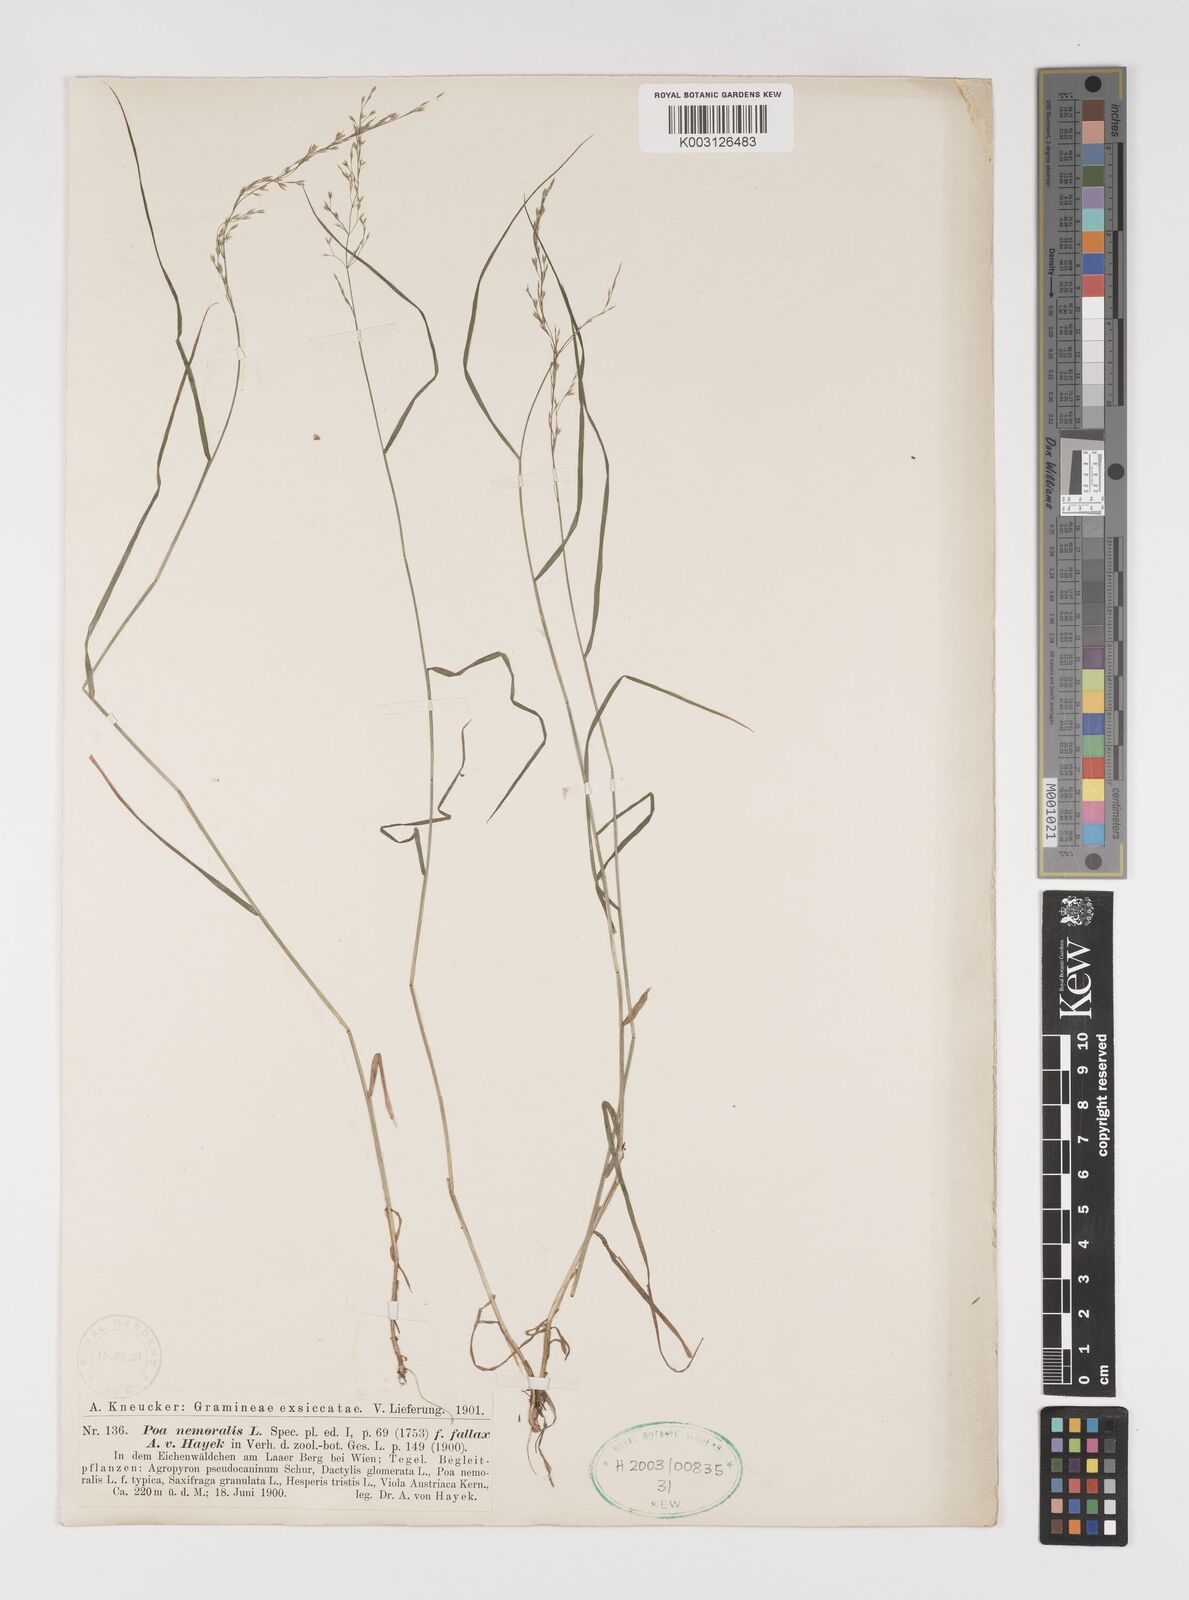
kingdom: Plantae
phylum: Tracheophyta
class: Liliopsida
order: Poales
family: Poaceae
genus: Poa
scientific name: Poa
